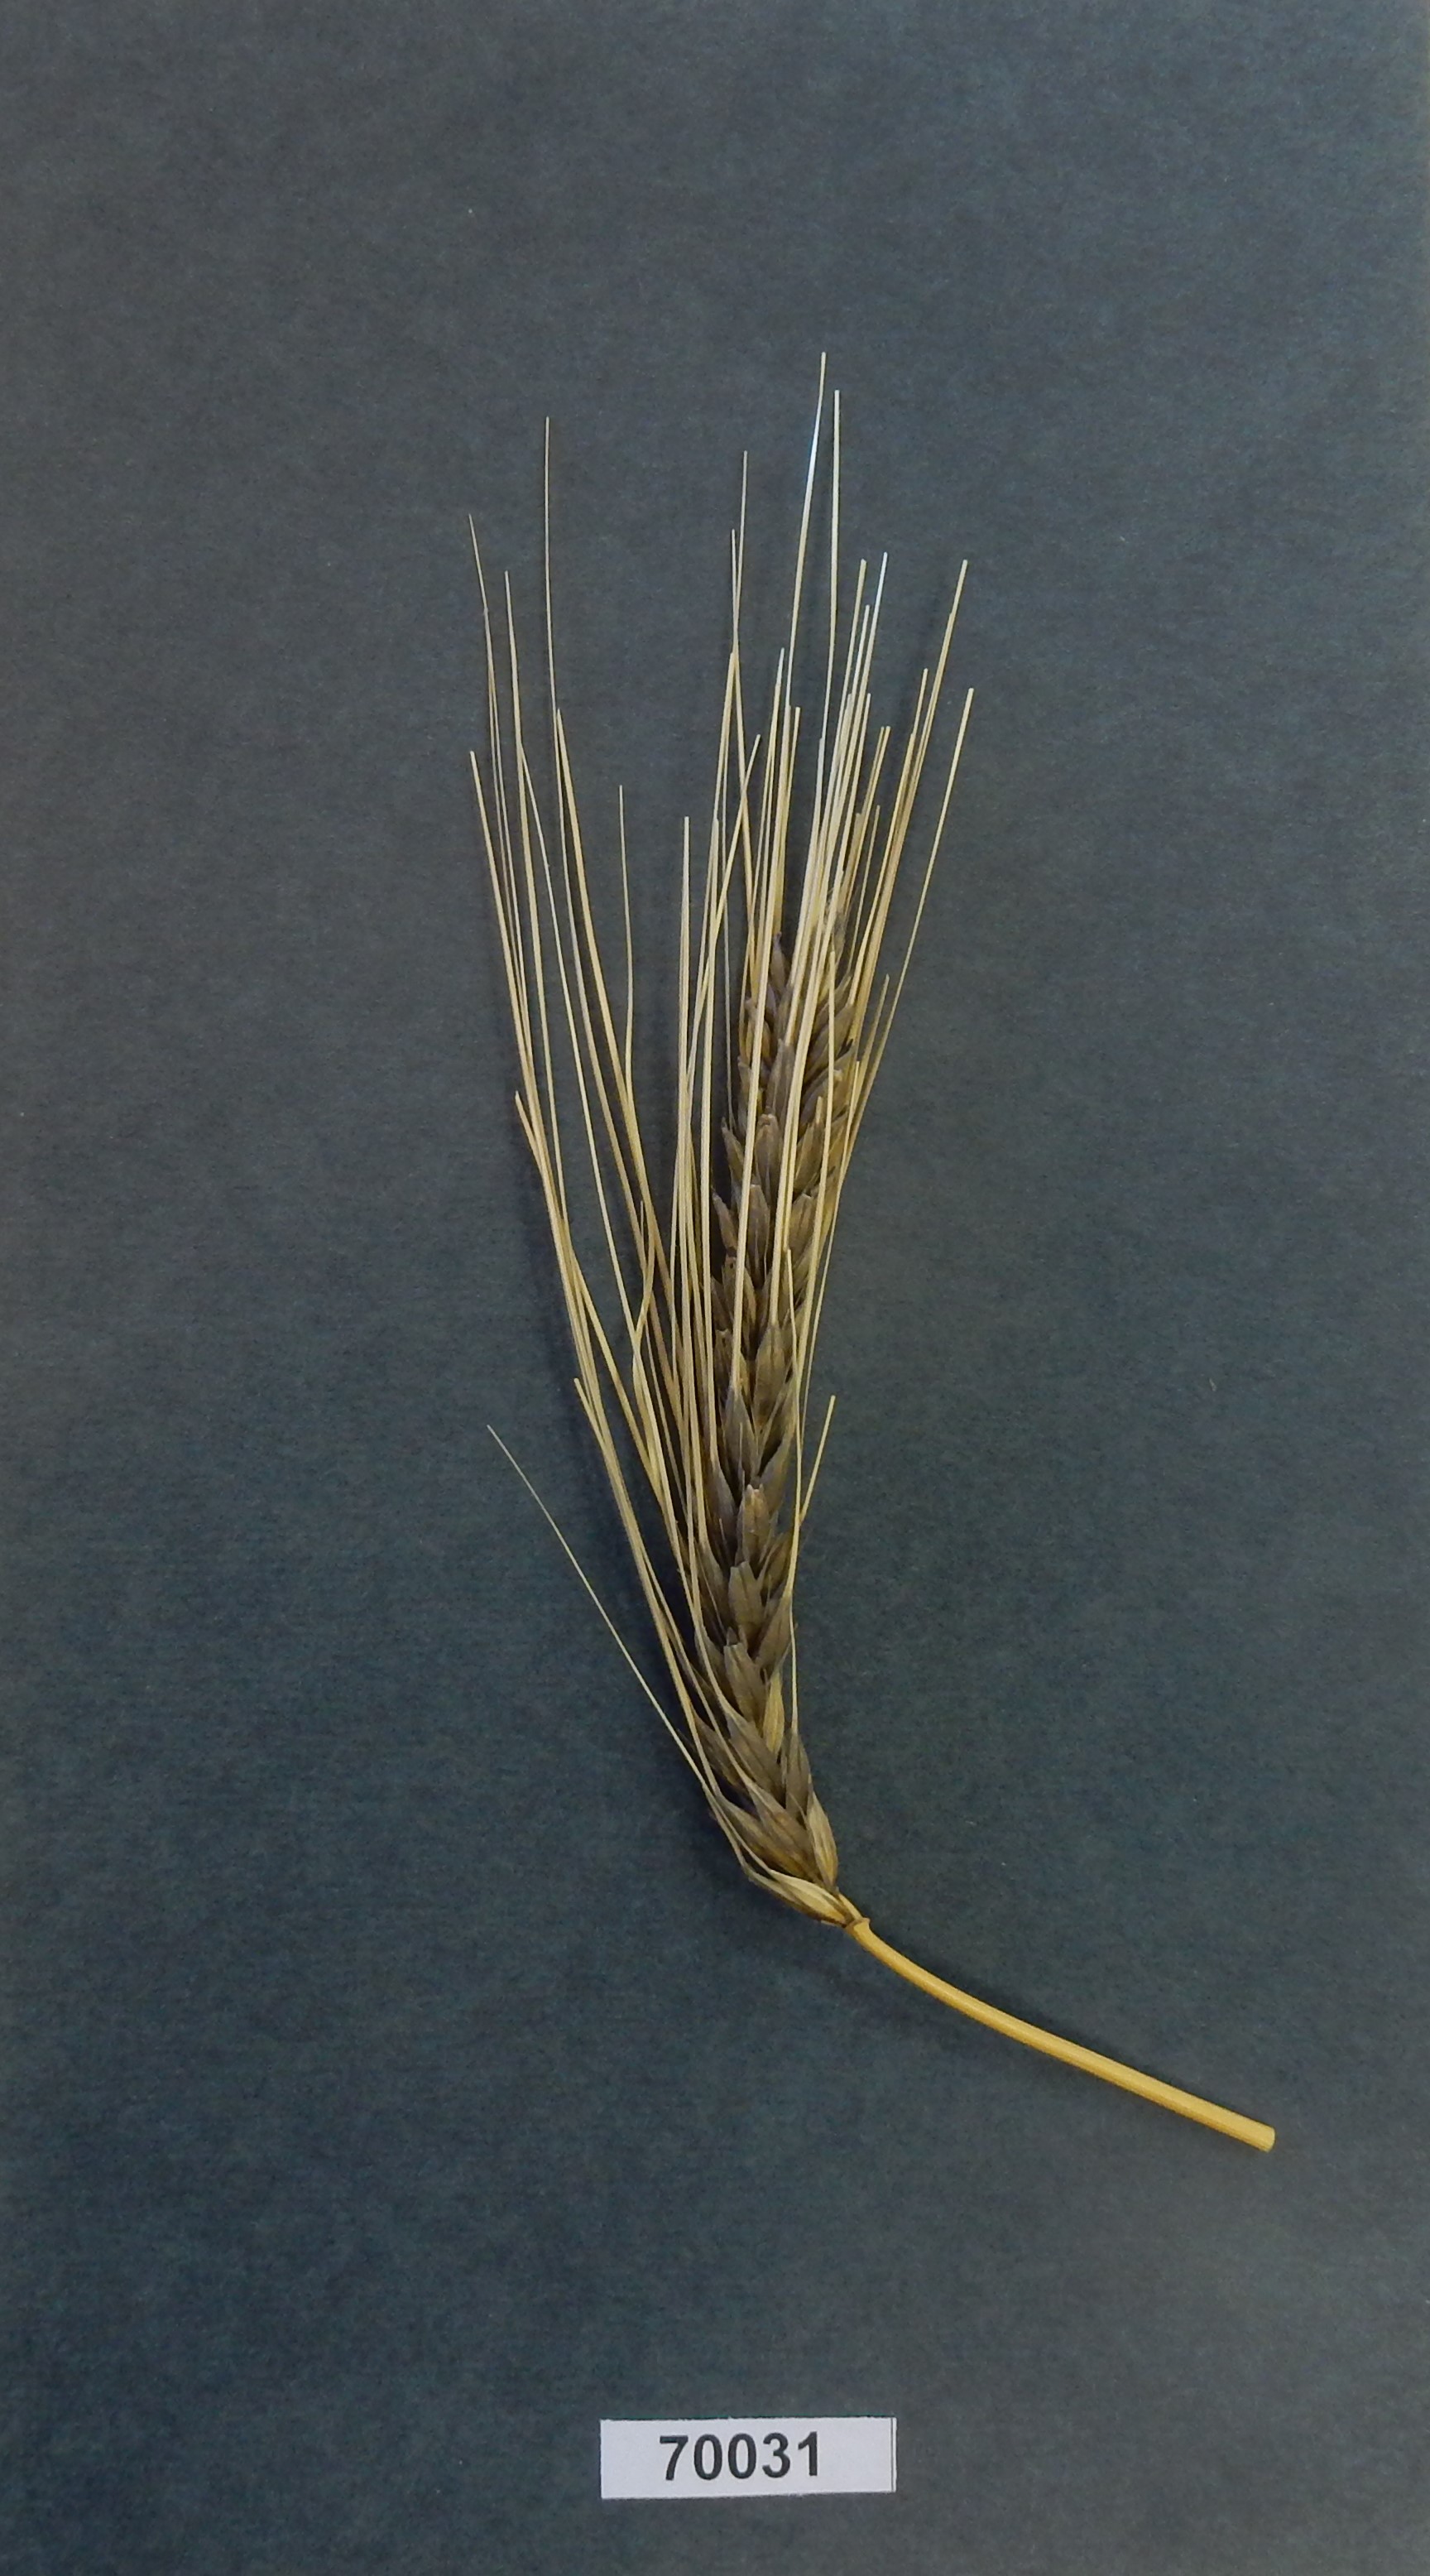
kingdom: Plantae
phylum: Tracheophyta
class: Liliopsida
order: Poales
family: Poaceae
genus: Hordeum
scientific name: Hordeum
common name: Barley
